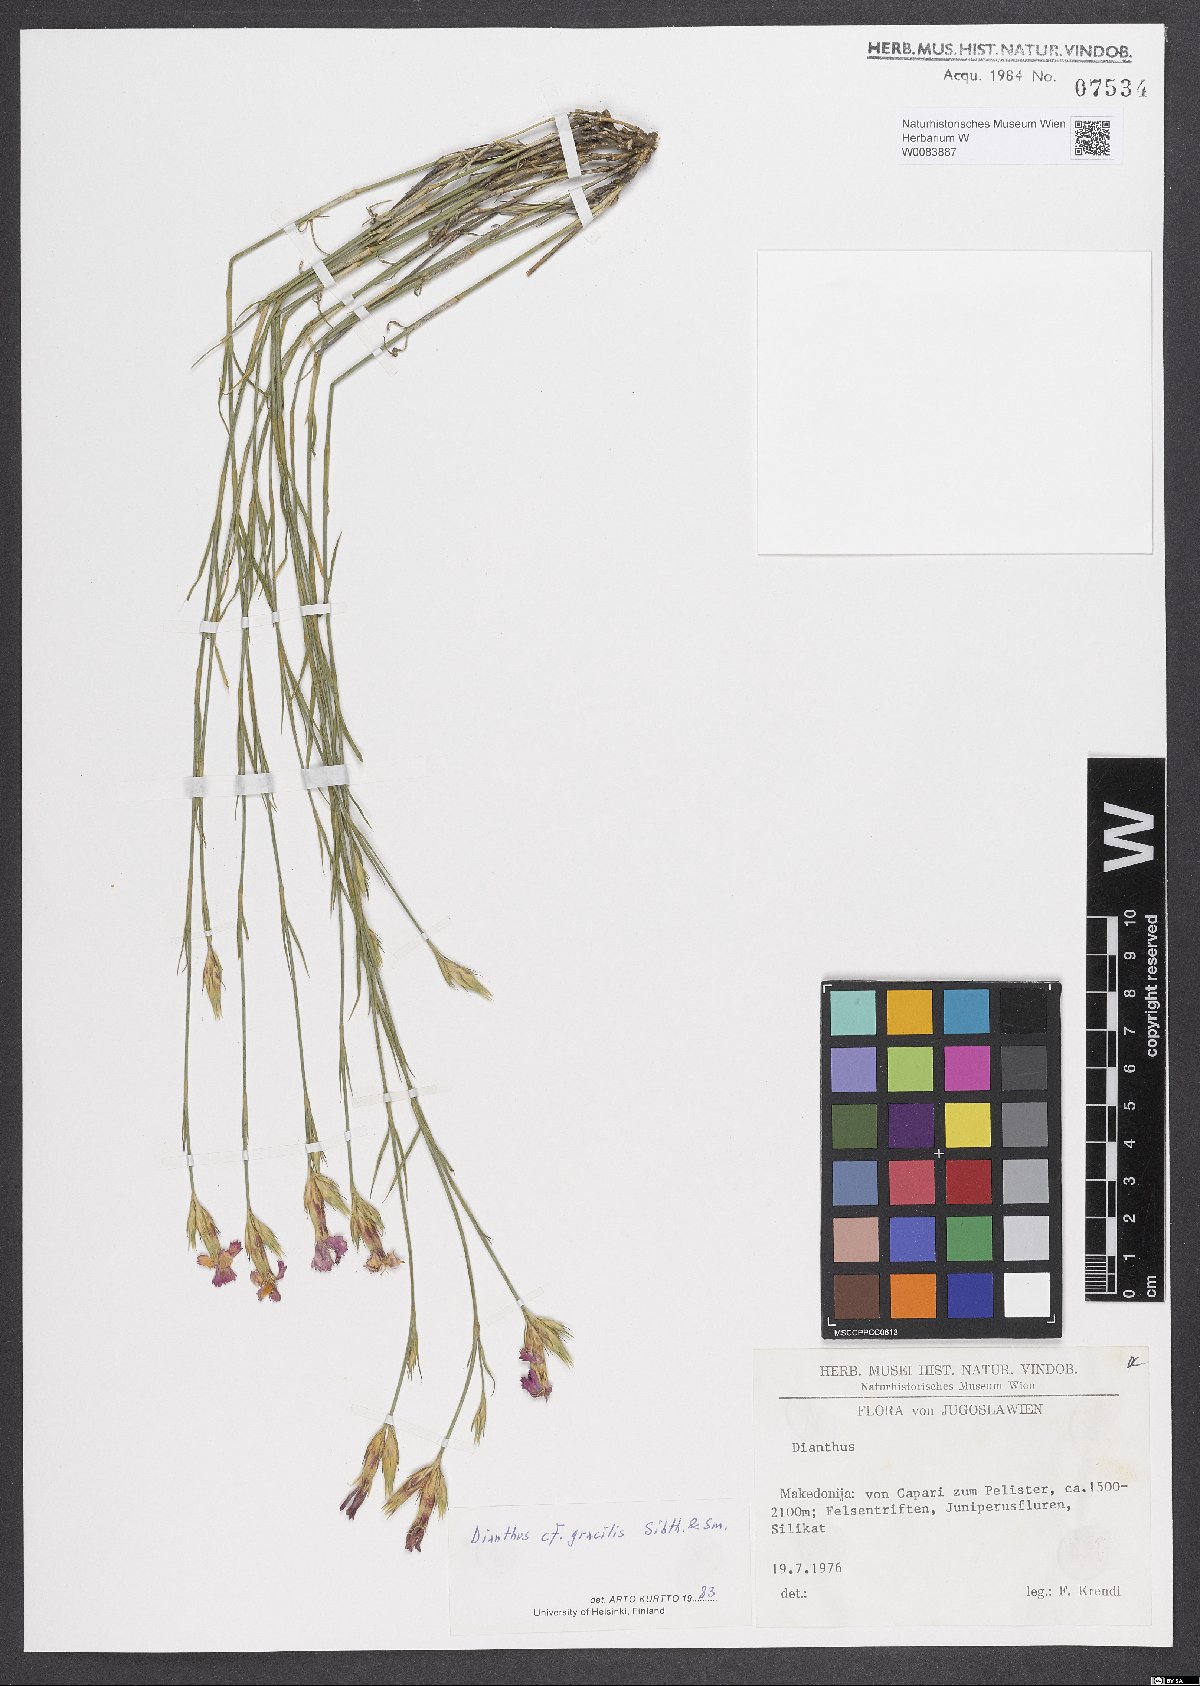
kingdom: Plantae
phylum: Tracheophyta
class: Magnoliopsida
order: Caryophyllales
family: Caryophyllaceae
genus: Dianthus
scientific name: Dianthus gracilis
